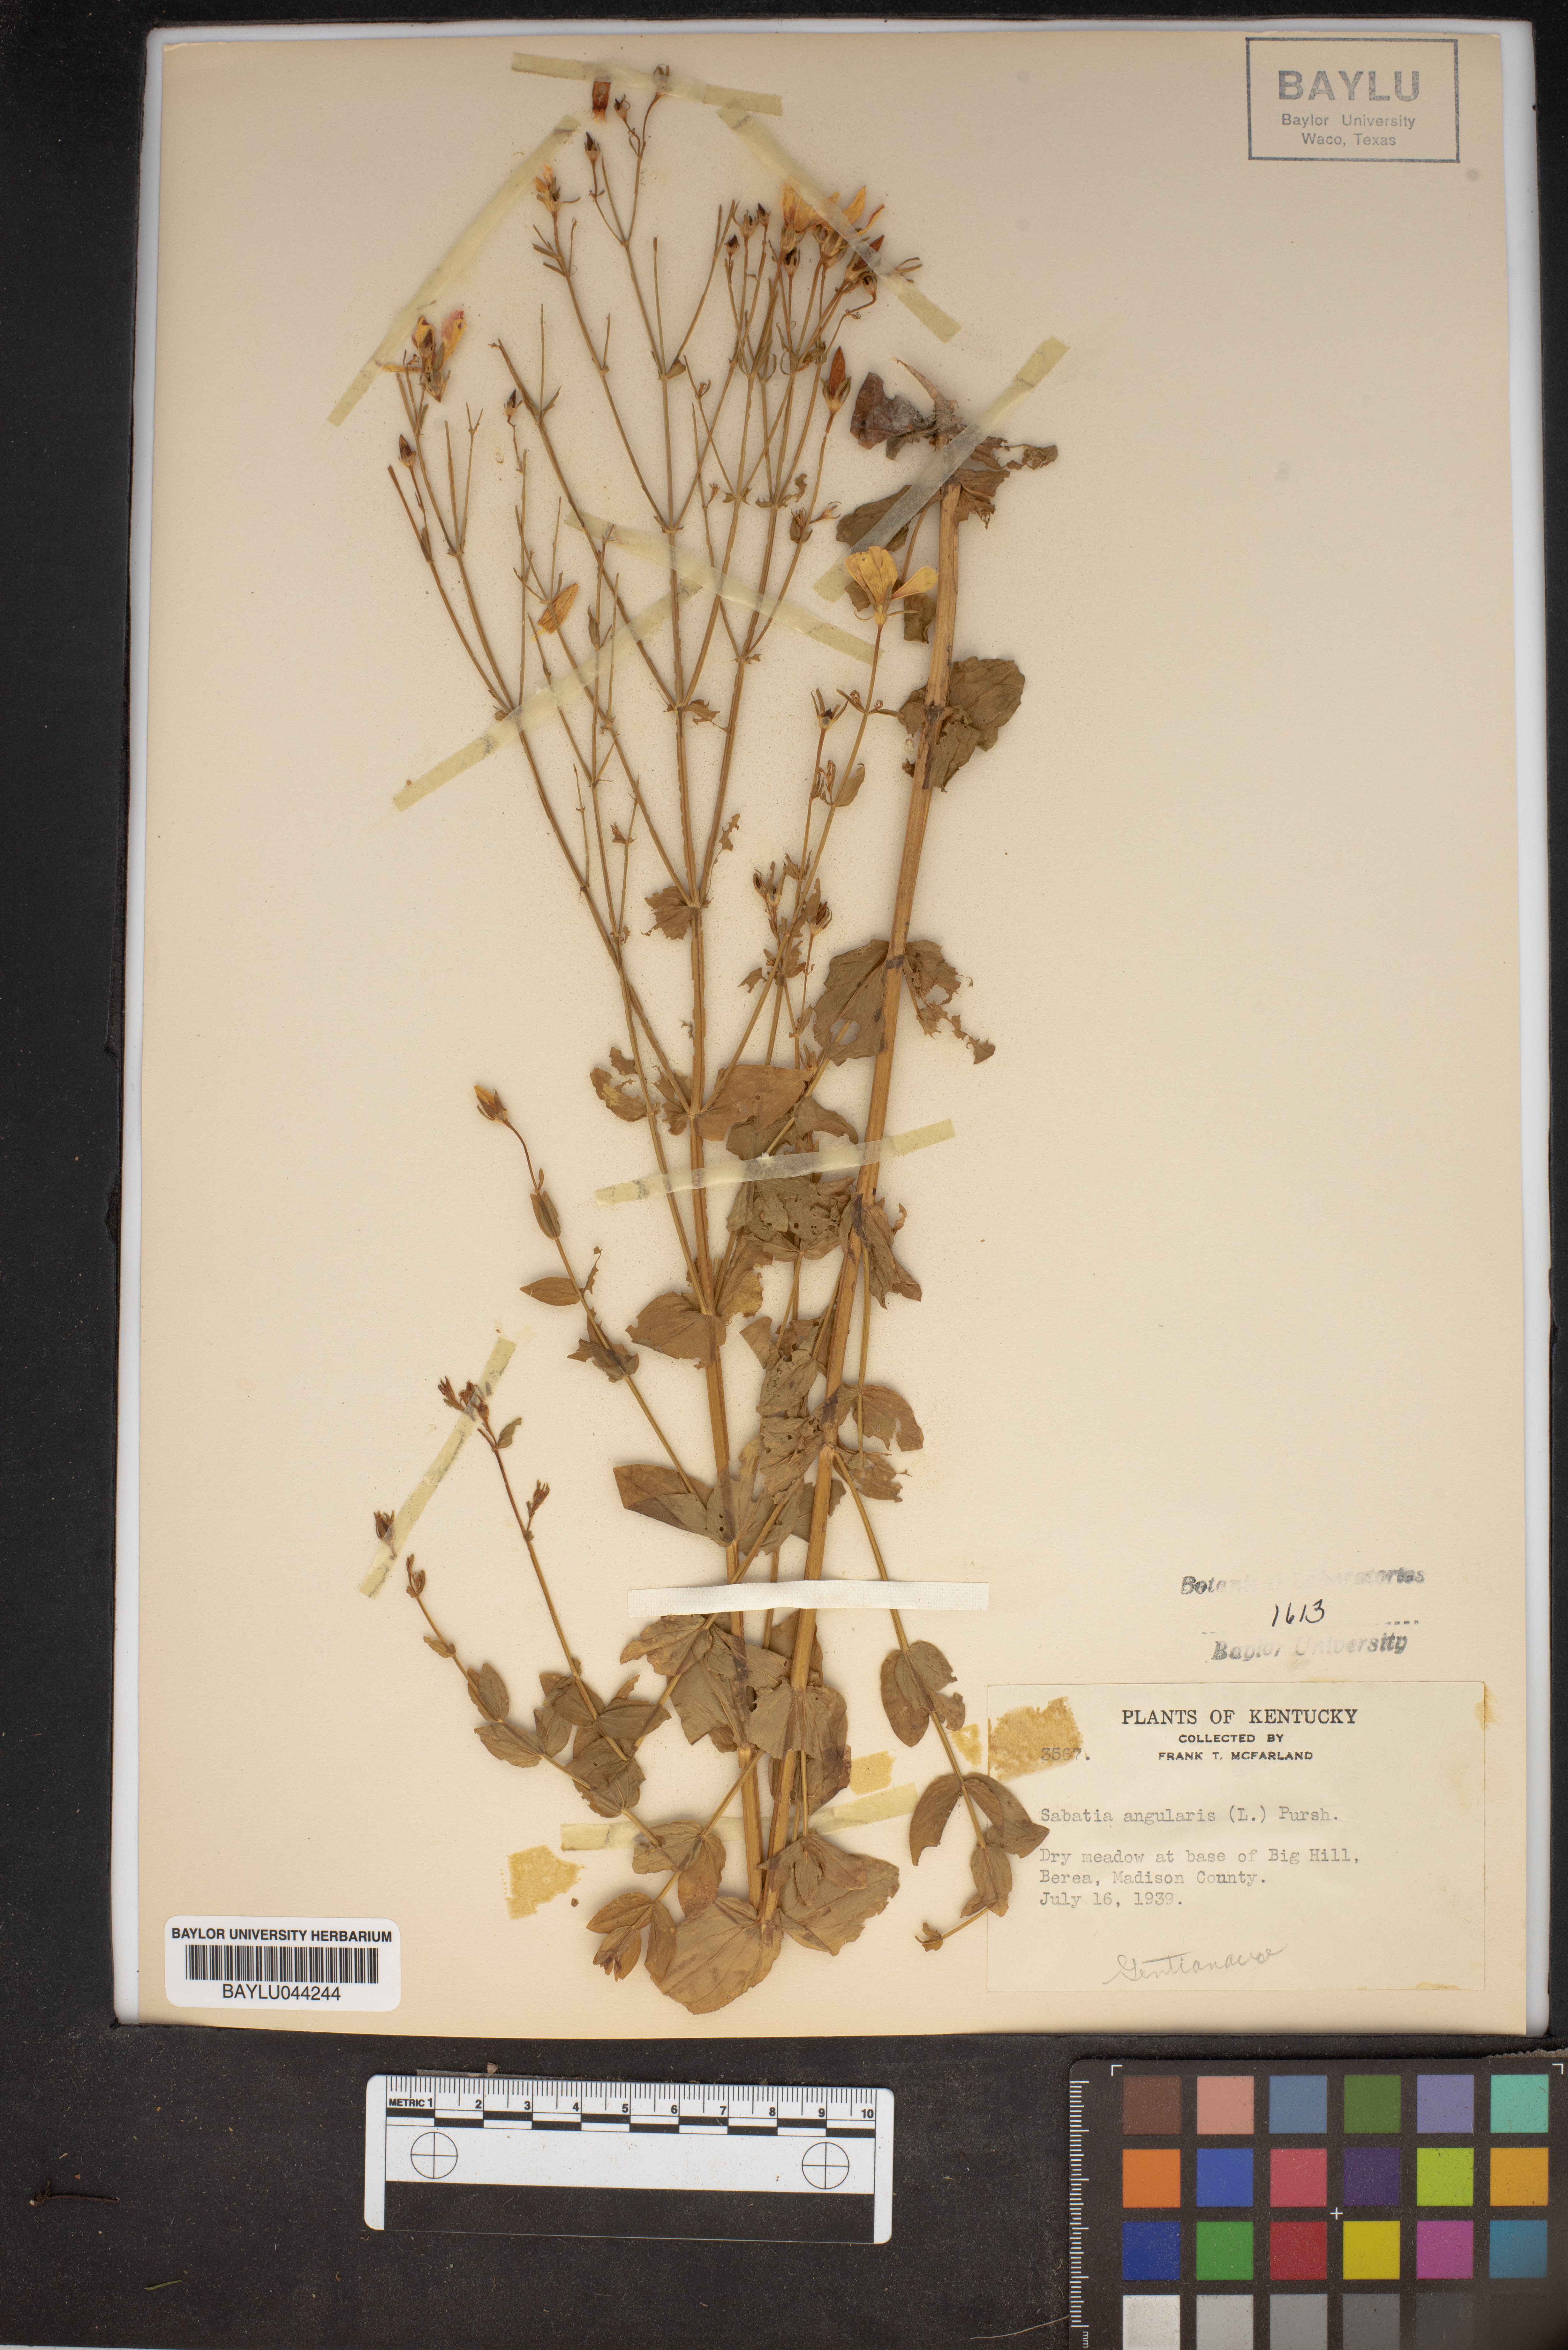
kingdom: Plantae
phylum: Tracheophyta
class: Magnoliopsida
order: Gentianales
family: Gentianaceae
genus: Sabatia
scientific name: Sabatia angularis
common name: Rose-pink
